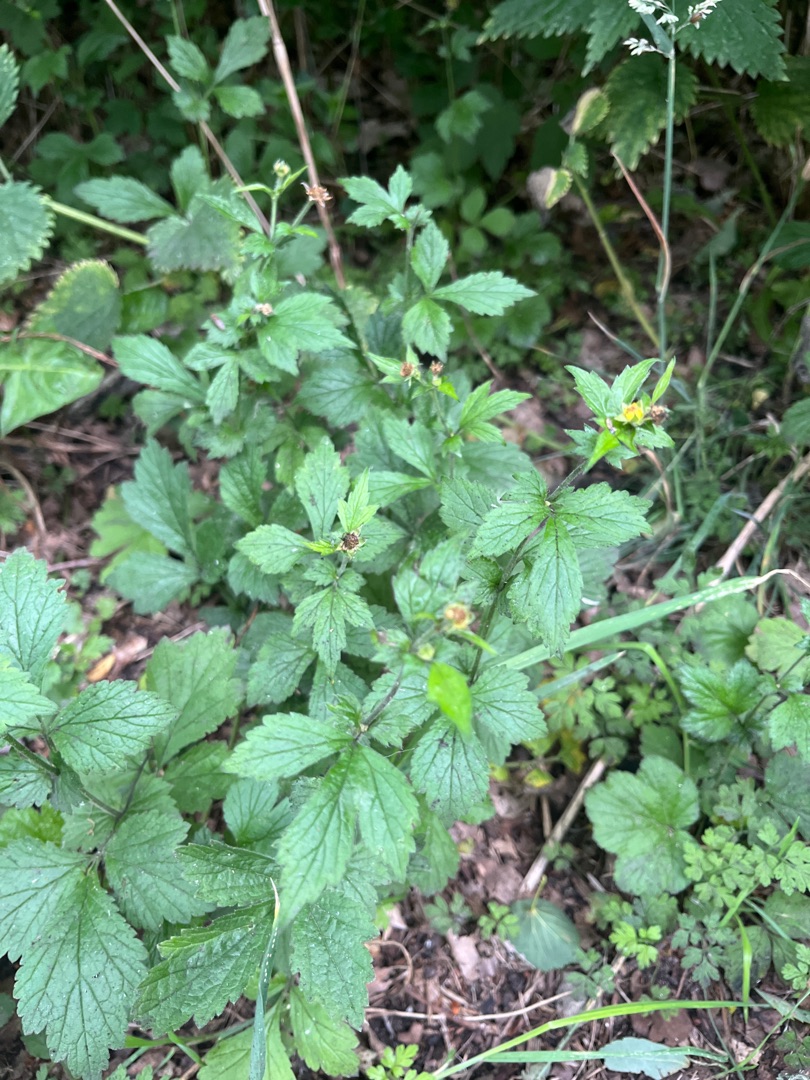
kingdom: Plantae
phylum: Tracheophyta
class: Magnoliopsida
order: Rosales
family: Rosaceae
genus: Geum
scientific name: Geum urbanum
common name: Feber-nellikerod
